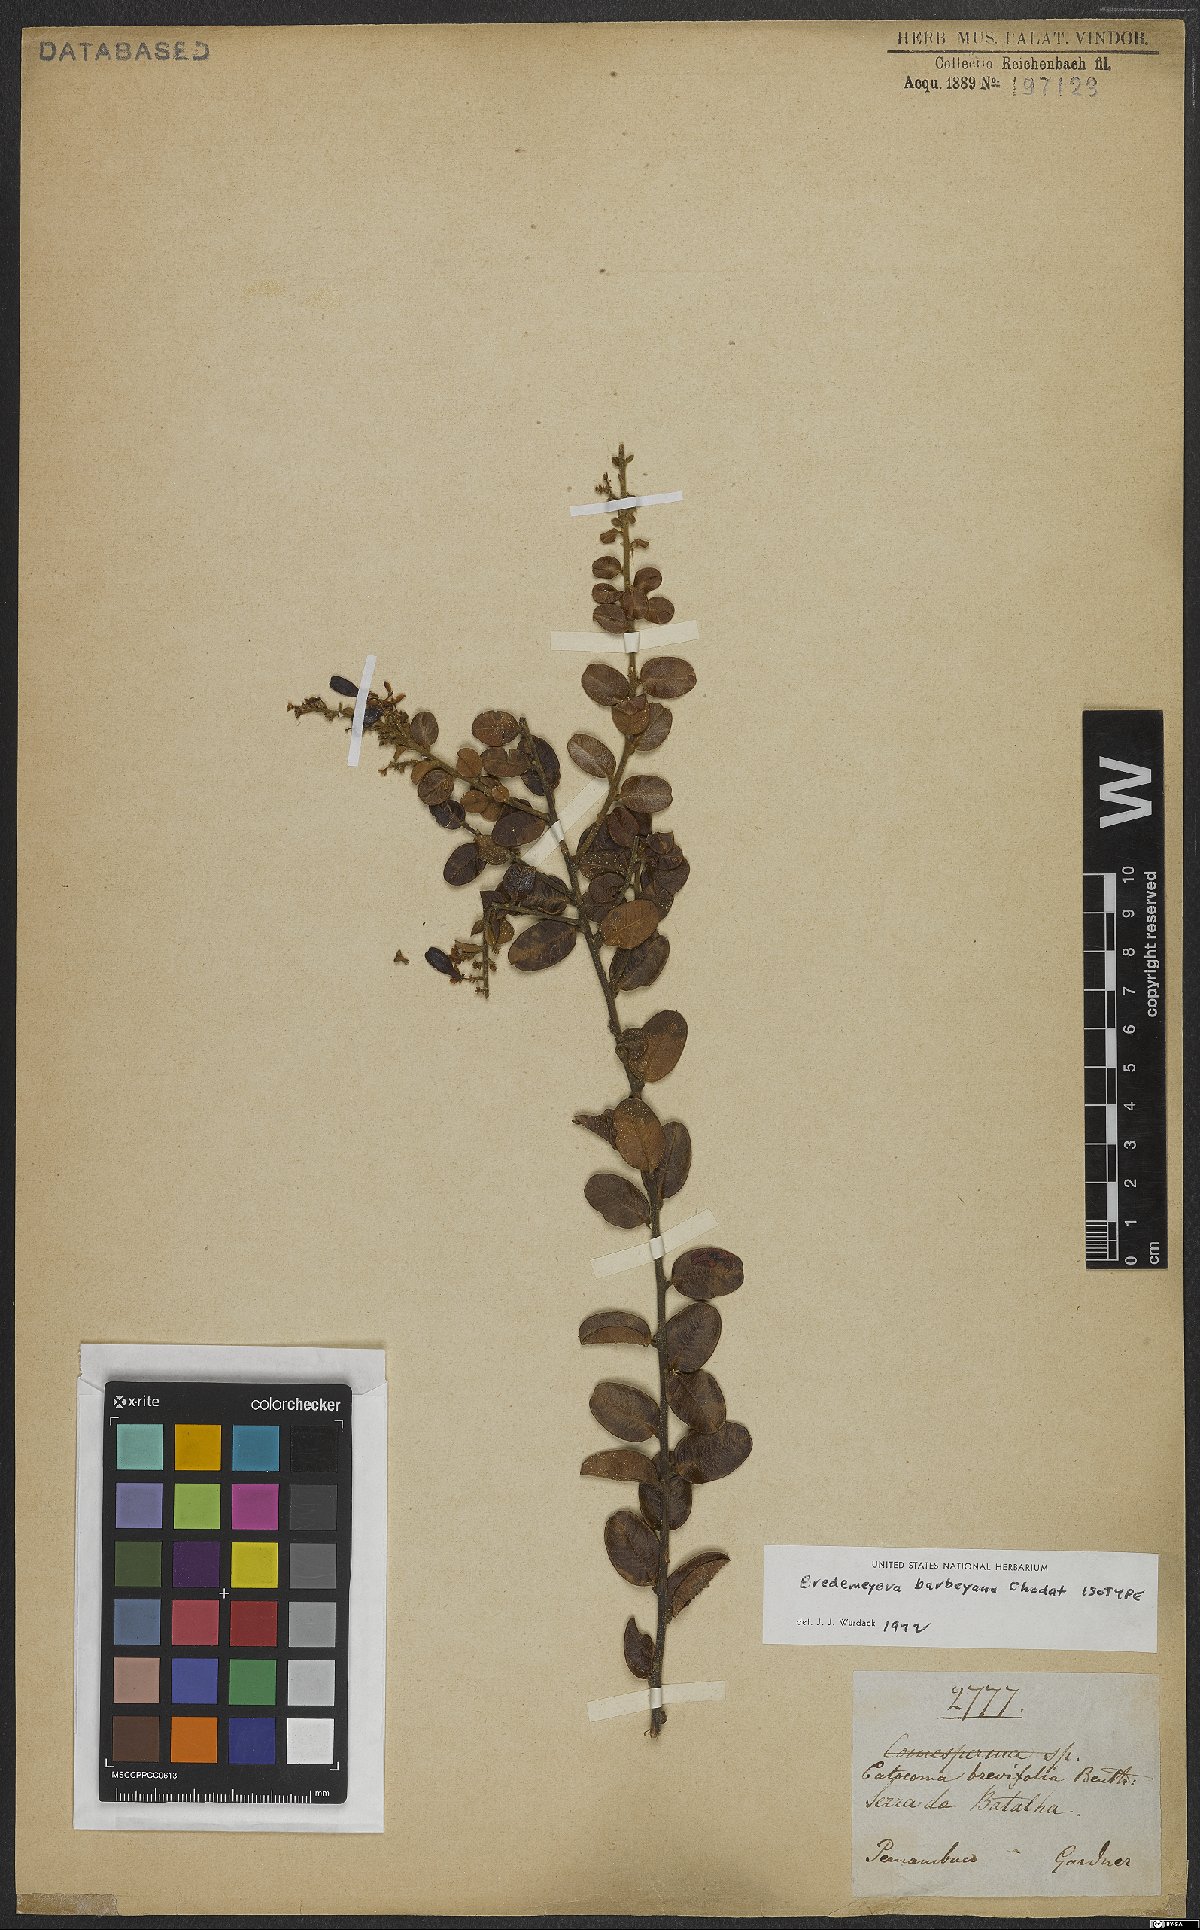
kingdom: Plantae
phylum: Tracheophyta
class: Magnoliopsida
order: Fabales
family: Polygalaceae
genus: Bredemeyera
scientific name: Bredemeyera barbeyana
